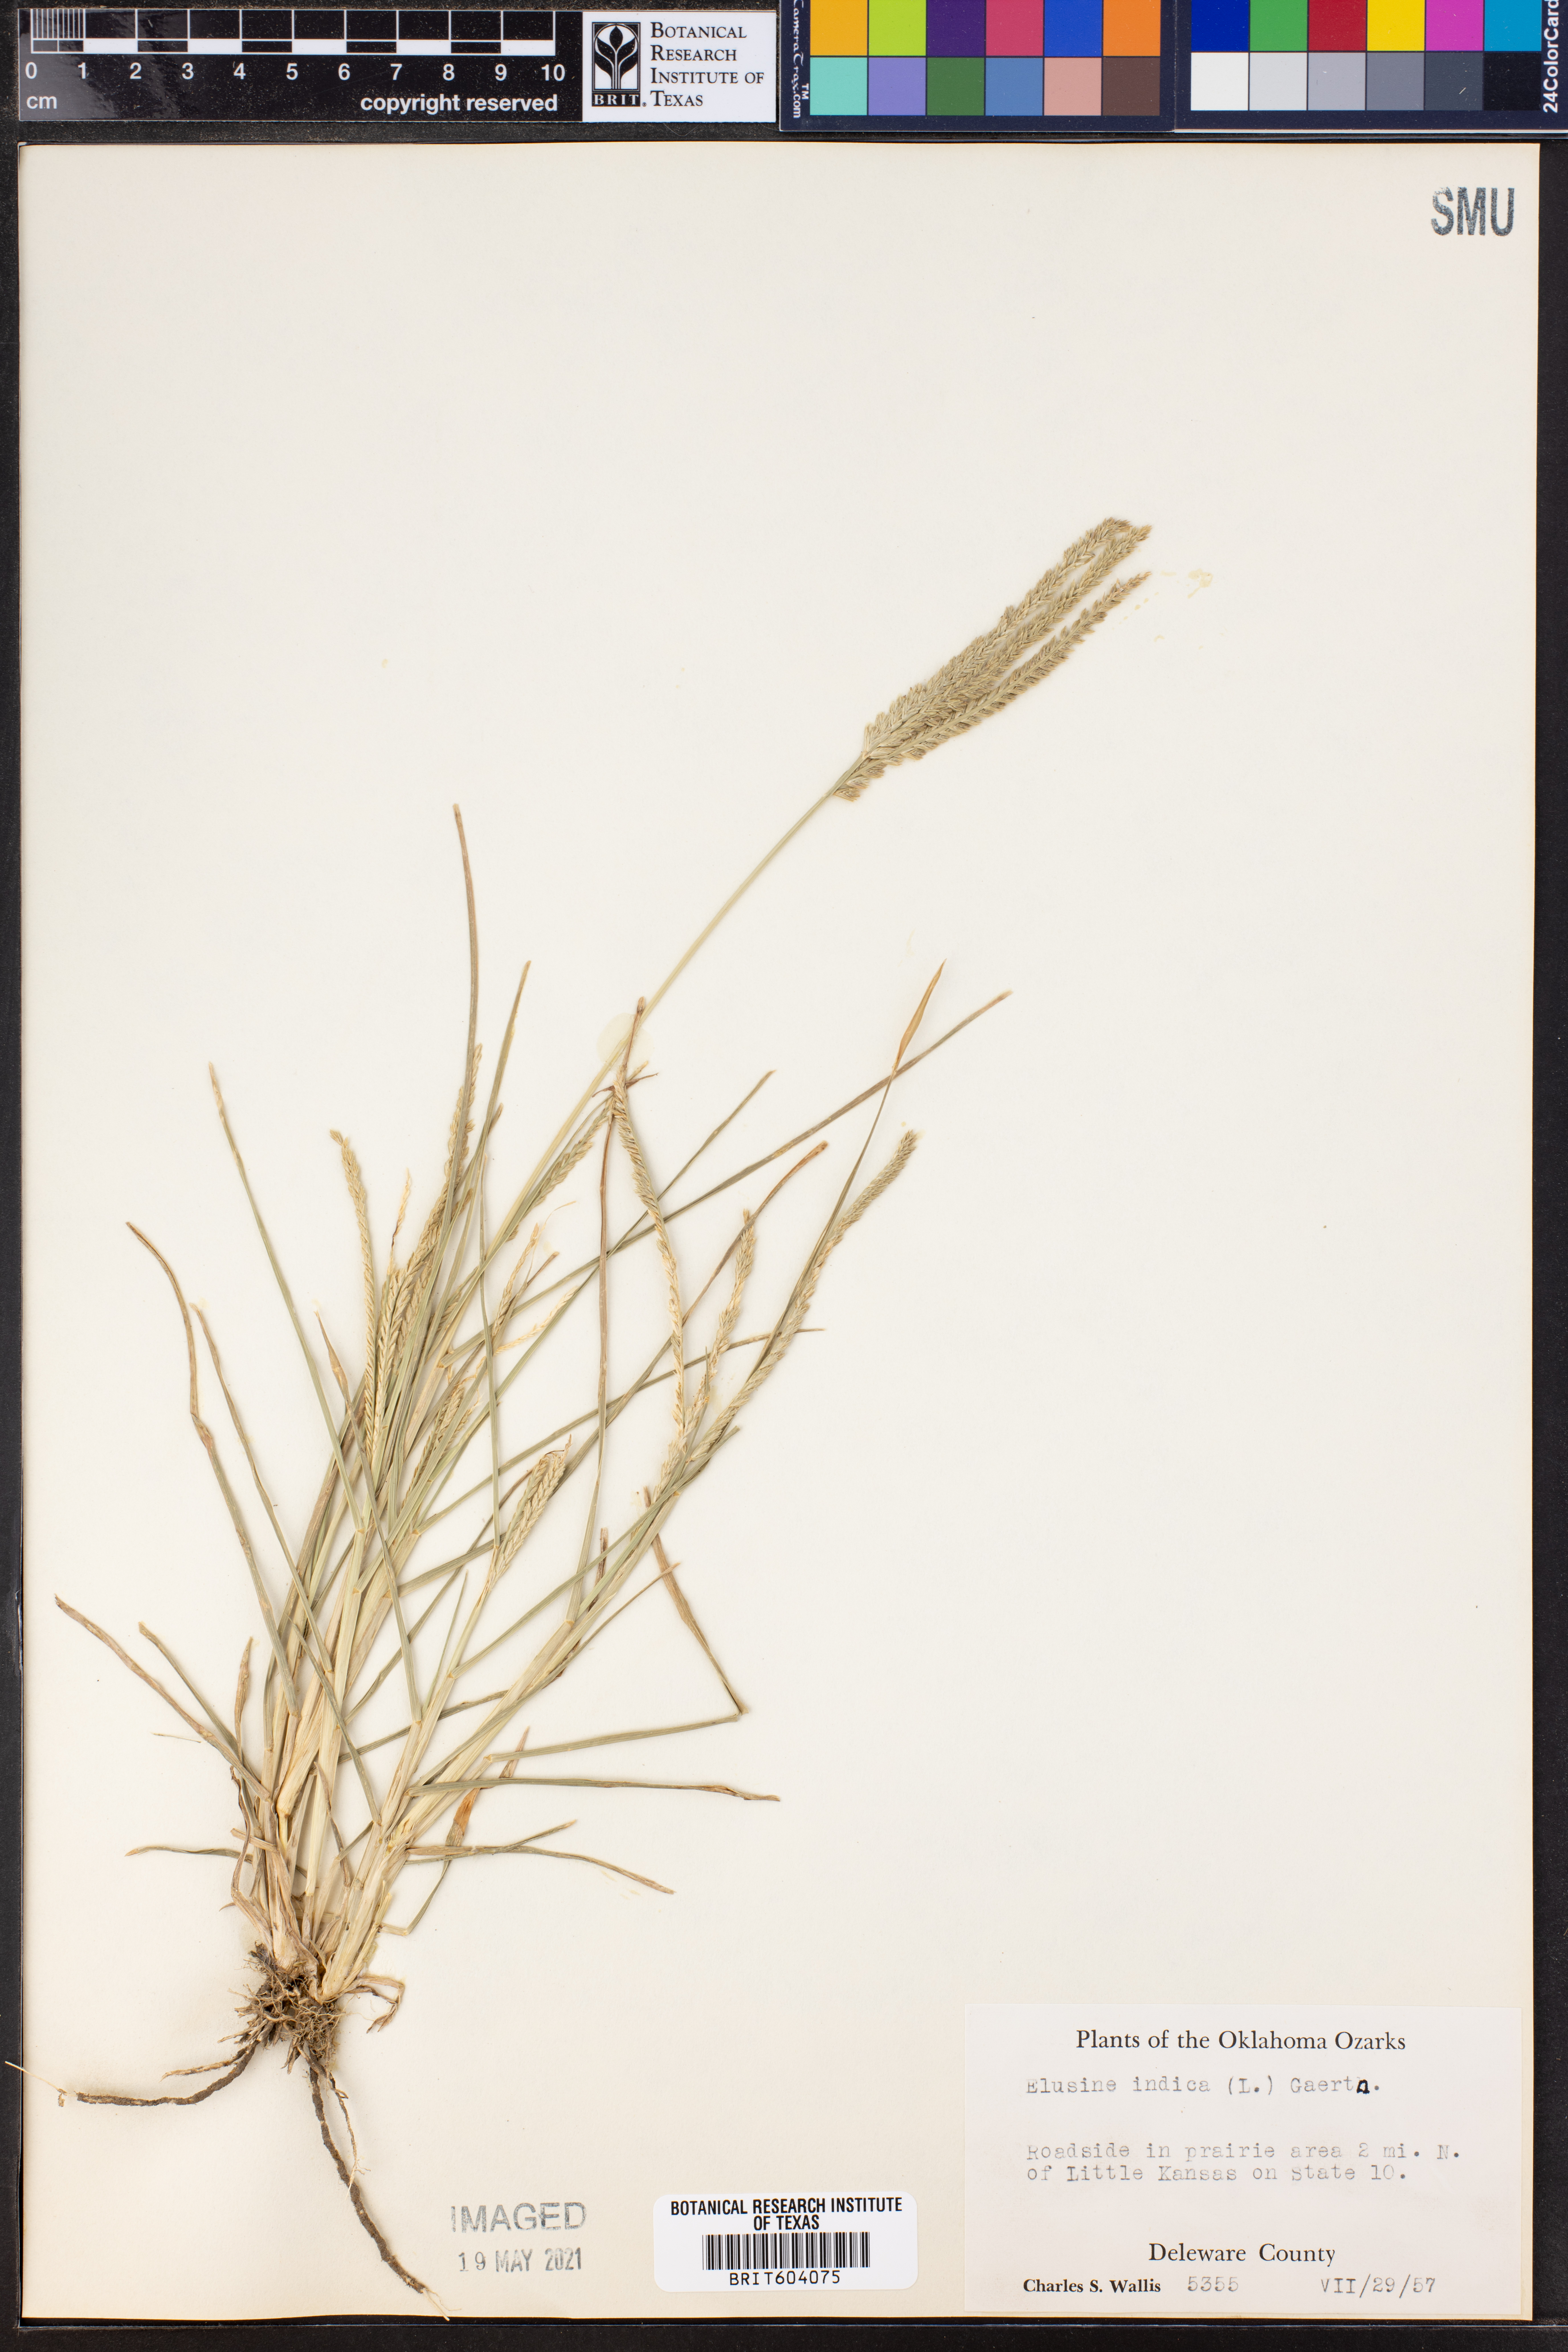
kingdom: Plantae
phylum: Tracheophyta
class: Liliopsida
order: Poales
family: Poaceae
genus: Eleusine
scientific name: Eleusine indica
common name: Yard-grass
